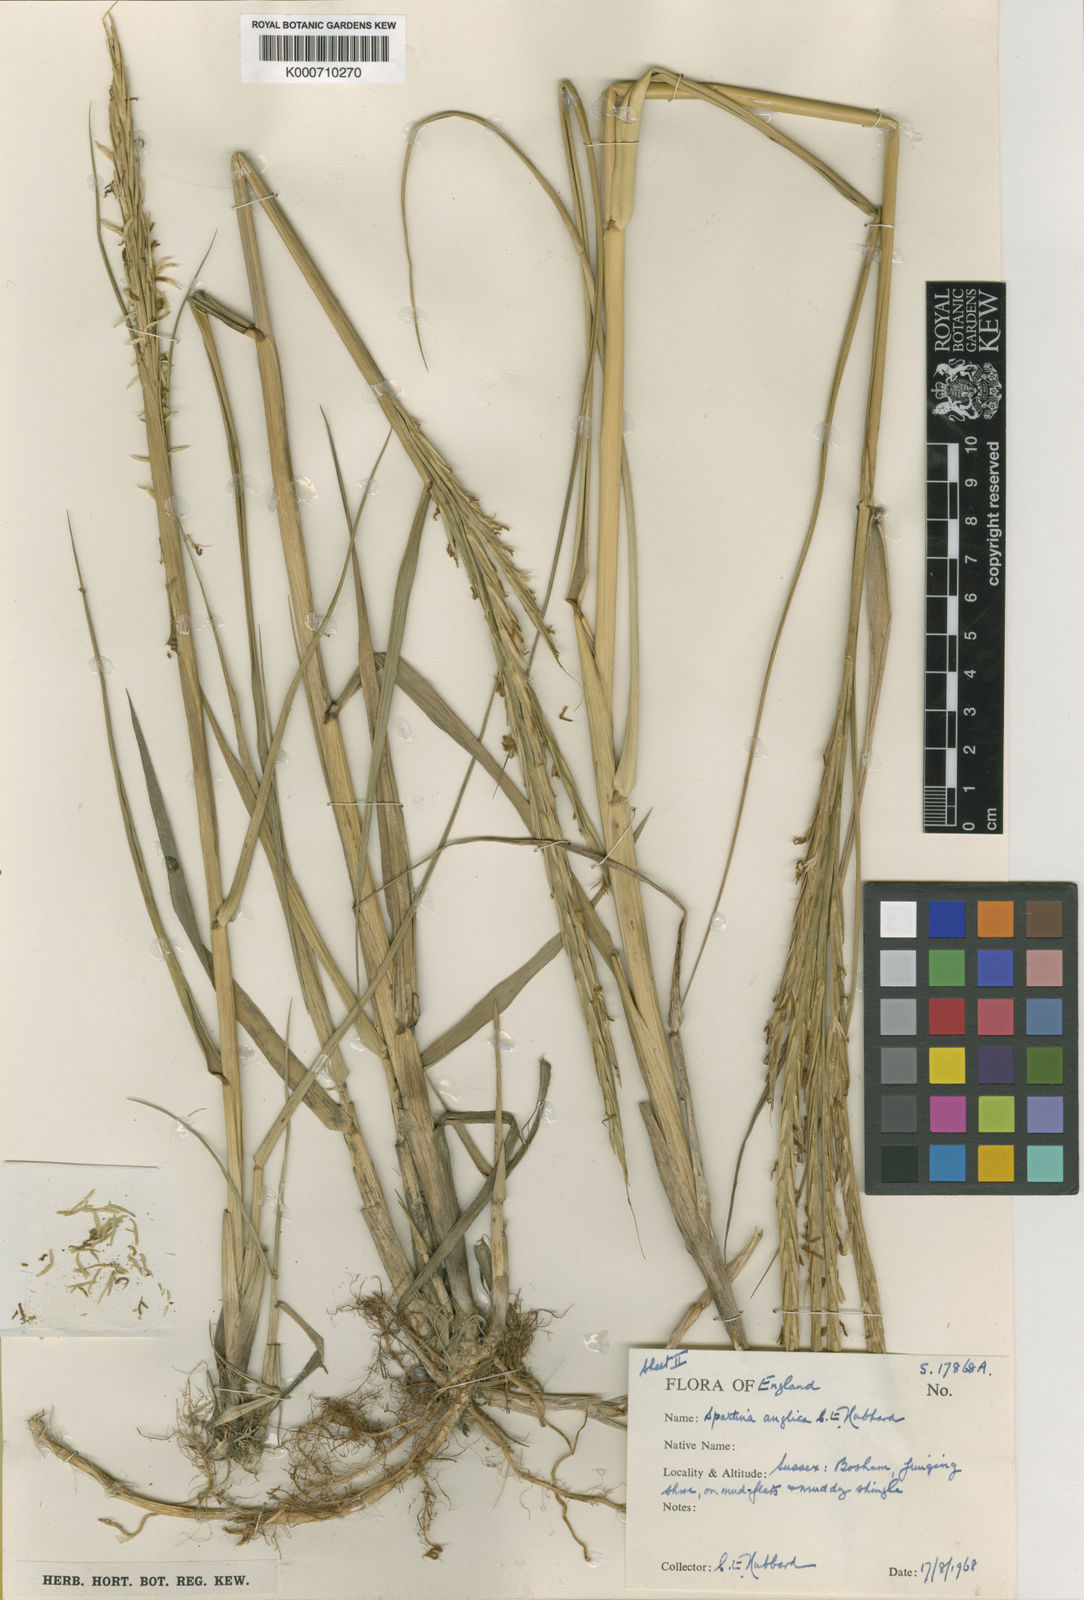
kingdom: Plantae
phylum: Tracheophyta
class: Liliopsida
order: Poales
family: Poaceae
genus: Sporobolus
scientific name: Sporobolus anglicus
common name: English cordgrass
